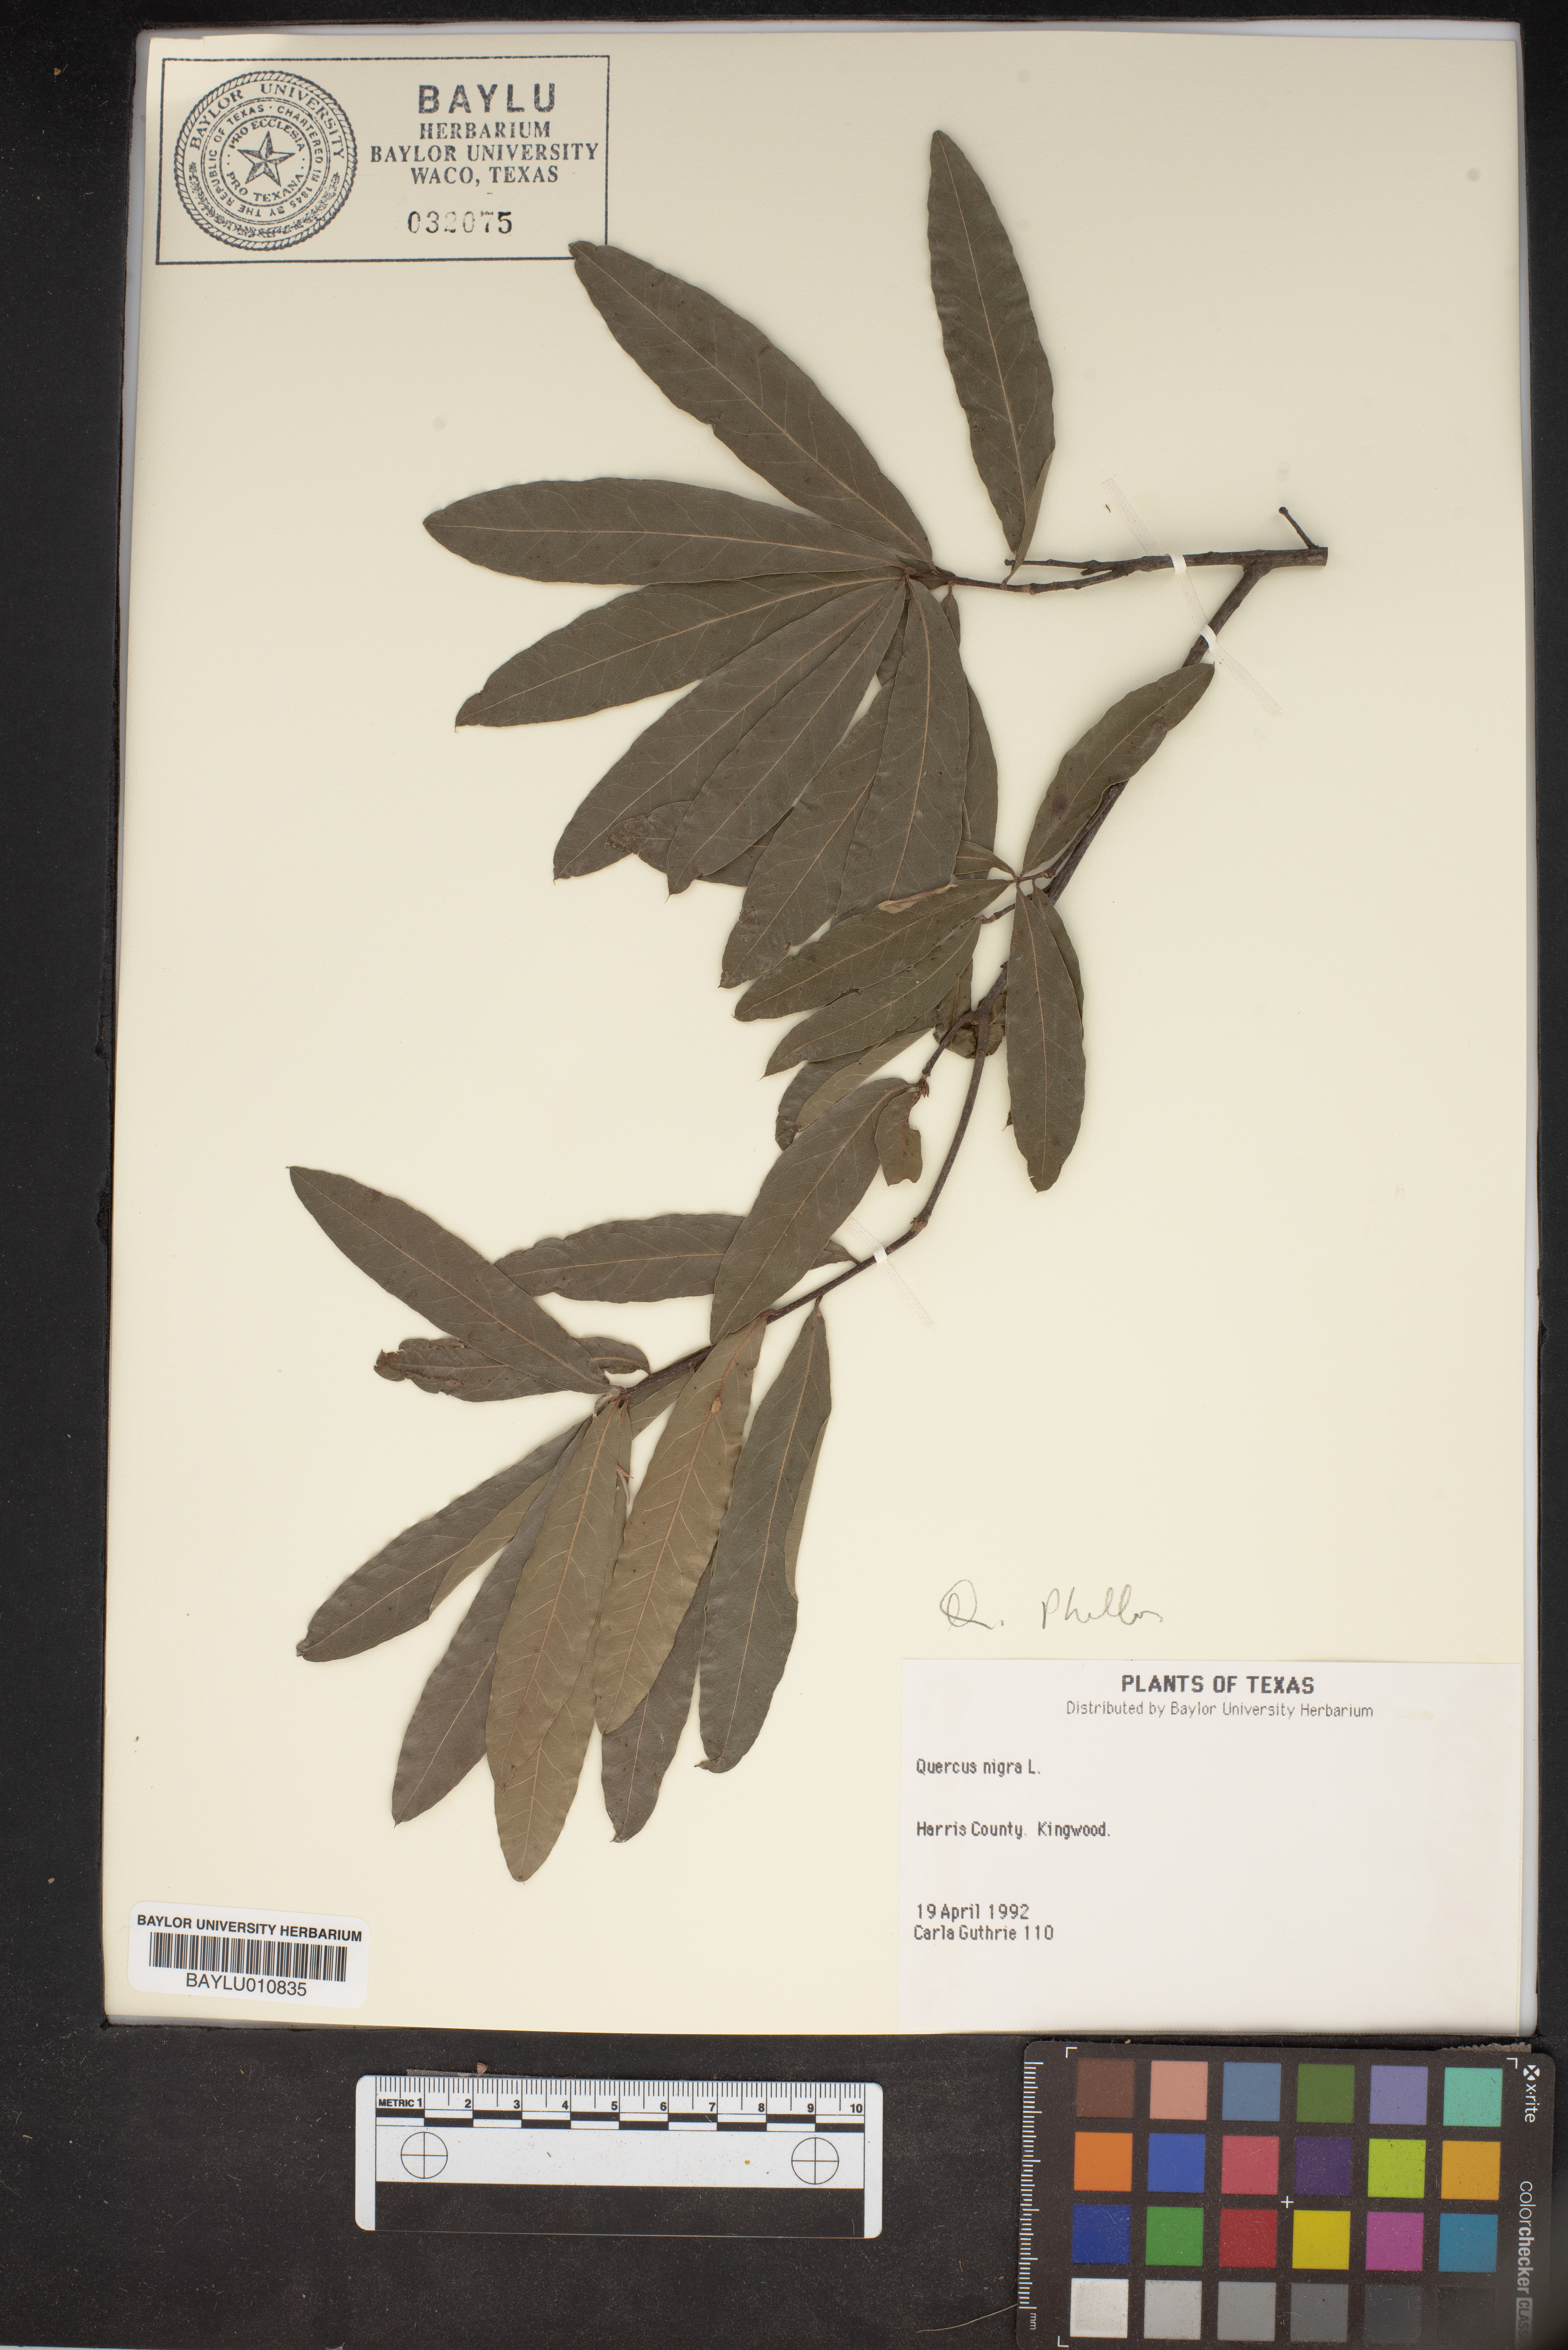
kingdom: Plantae
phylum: Tracheophyta
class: Magnoliopsida
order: Fagales
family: Fagaceae
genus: Quercus
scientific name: Quercus nigra
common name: Water oak
